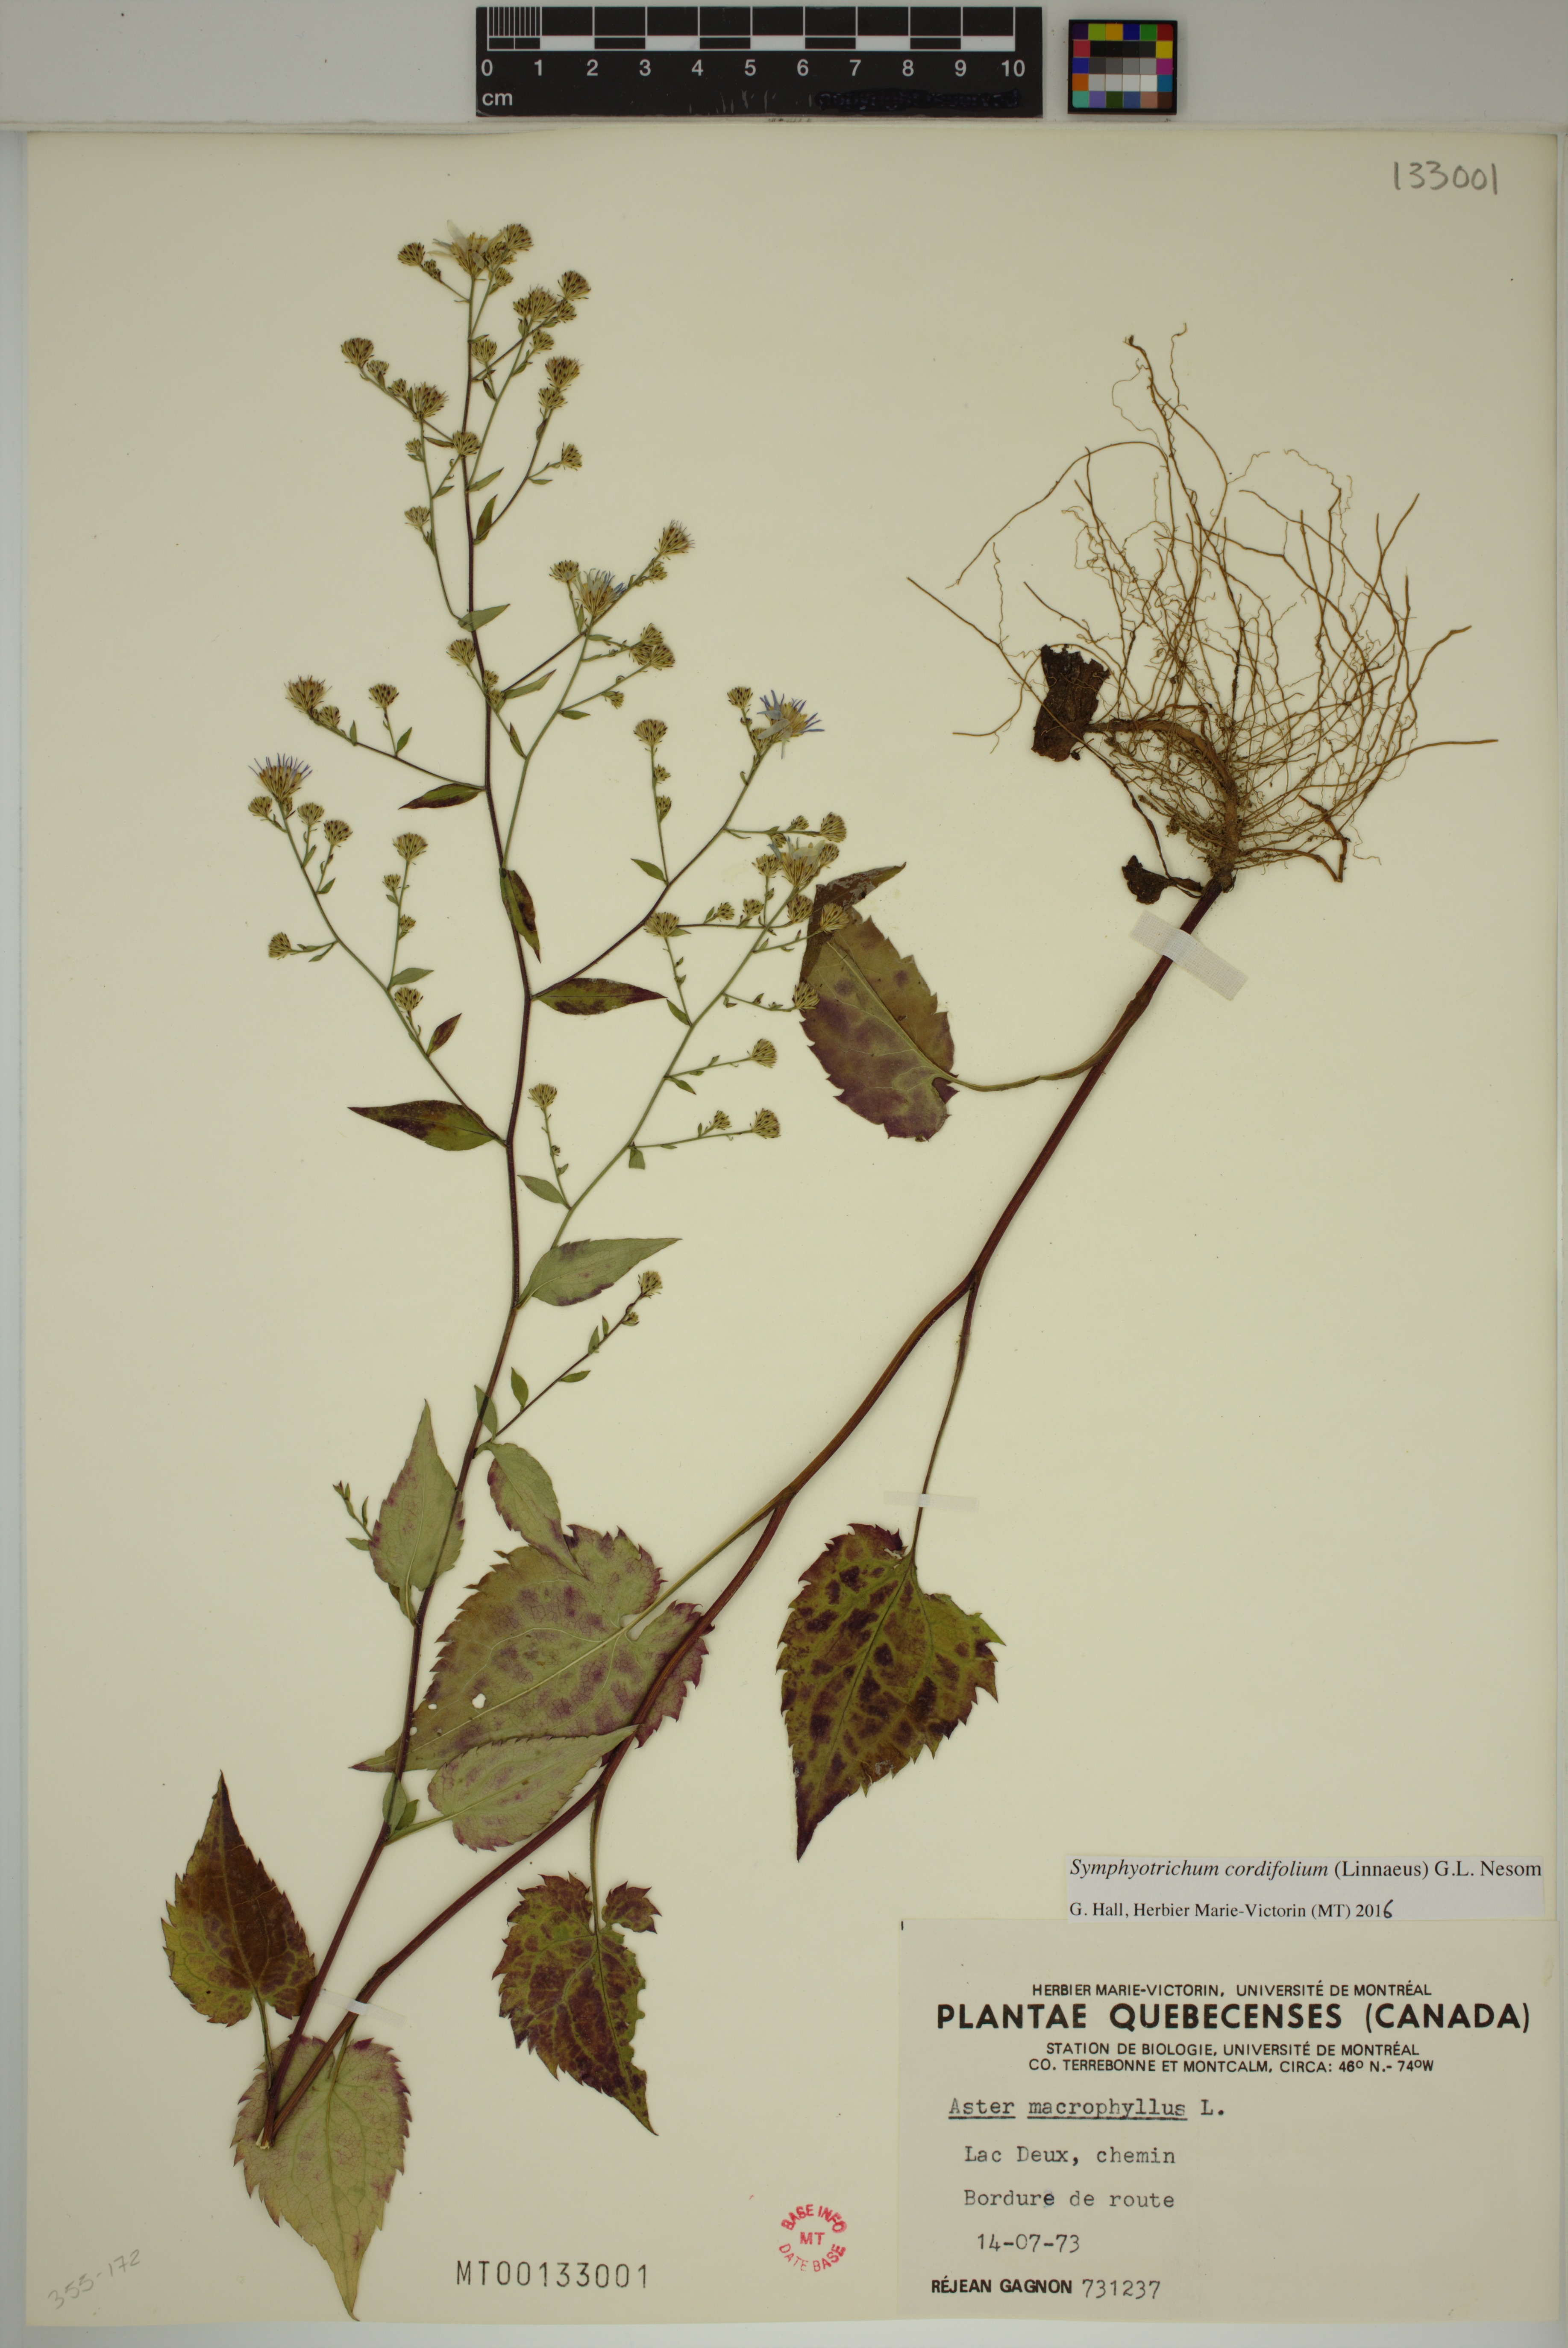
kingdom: Plantae
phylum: Tracheophyta
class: Magnoliopsida
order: Asterales
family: Asteraceae
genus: Symphyotrichum
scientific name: Symphyotrichum cordifolium
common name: Beeweed
